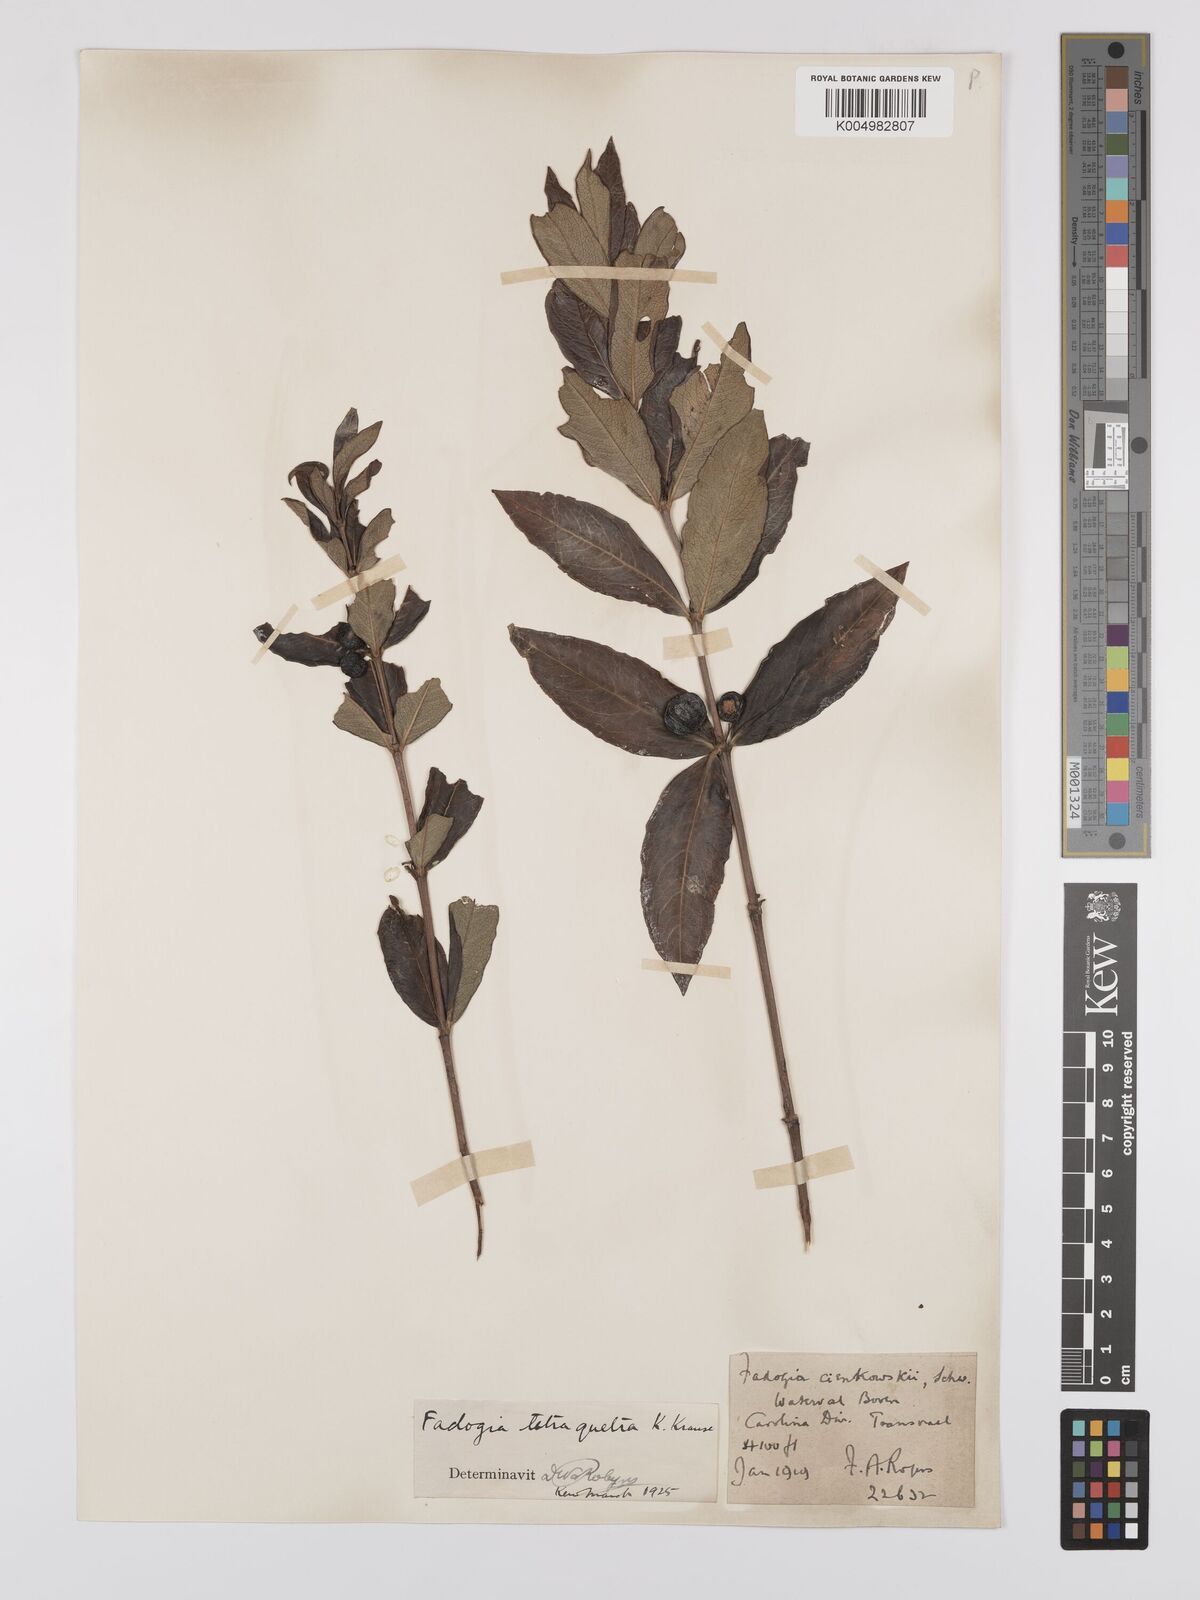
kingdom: Plantae
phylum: Tracheophyta
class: Magnoliopsida
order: Gentianales
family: Rubiaceae
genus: Fadogia
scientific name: Fadogia tetraquetra
